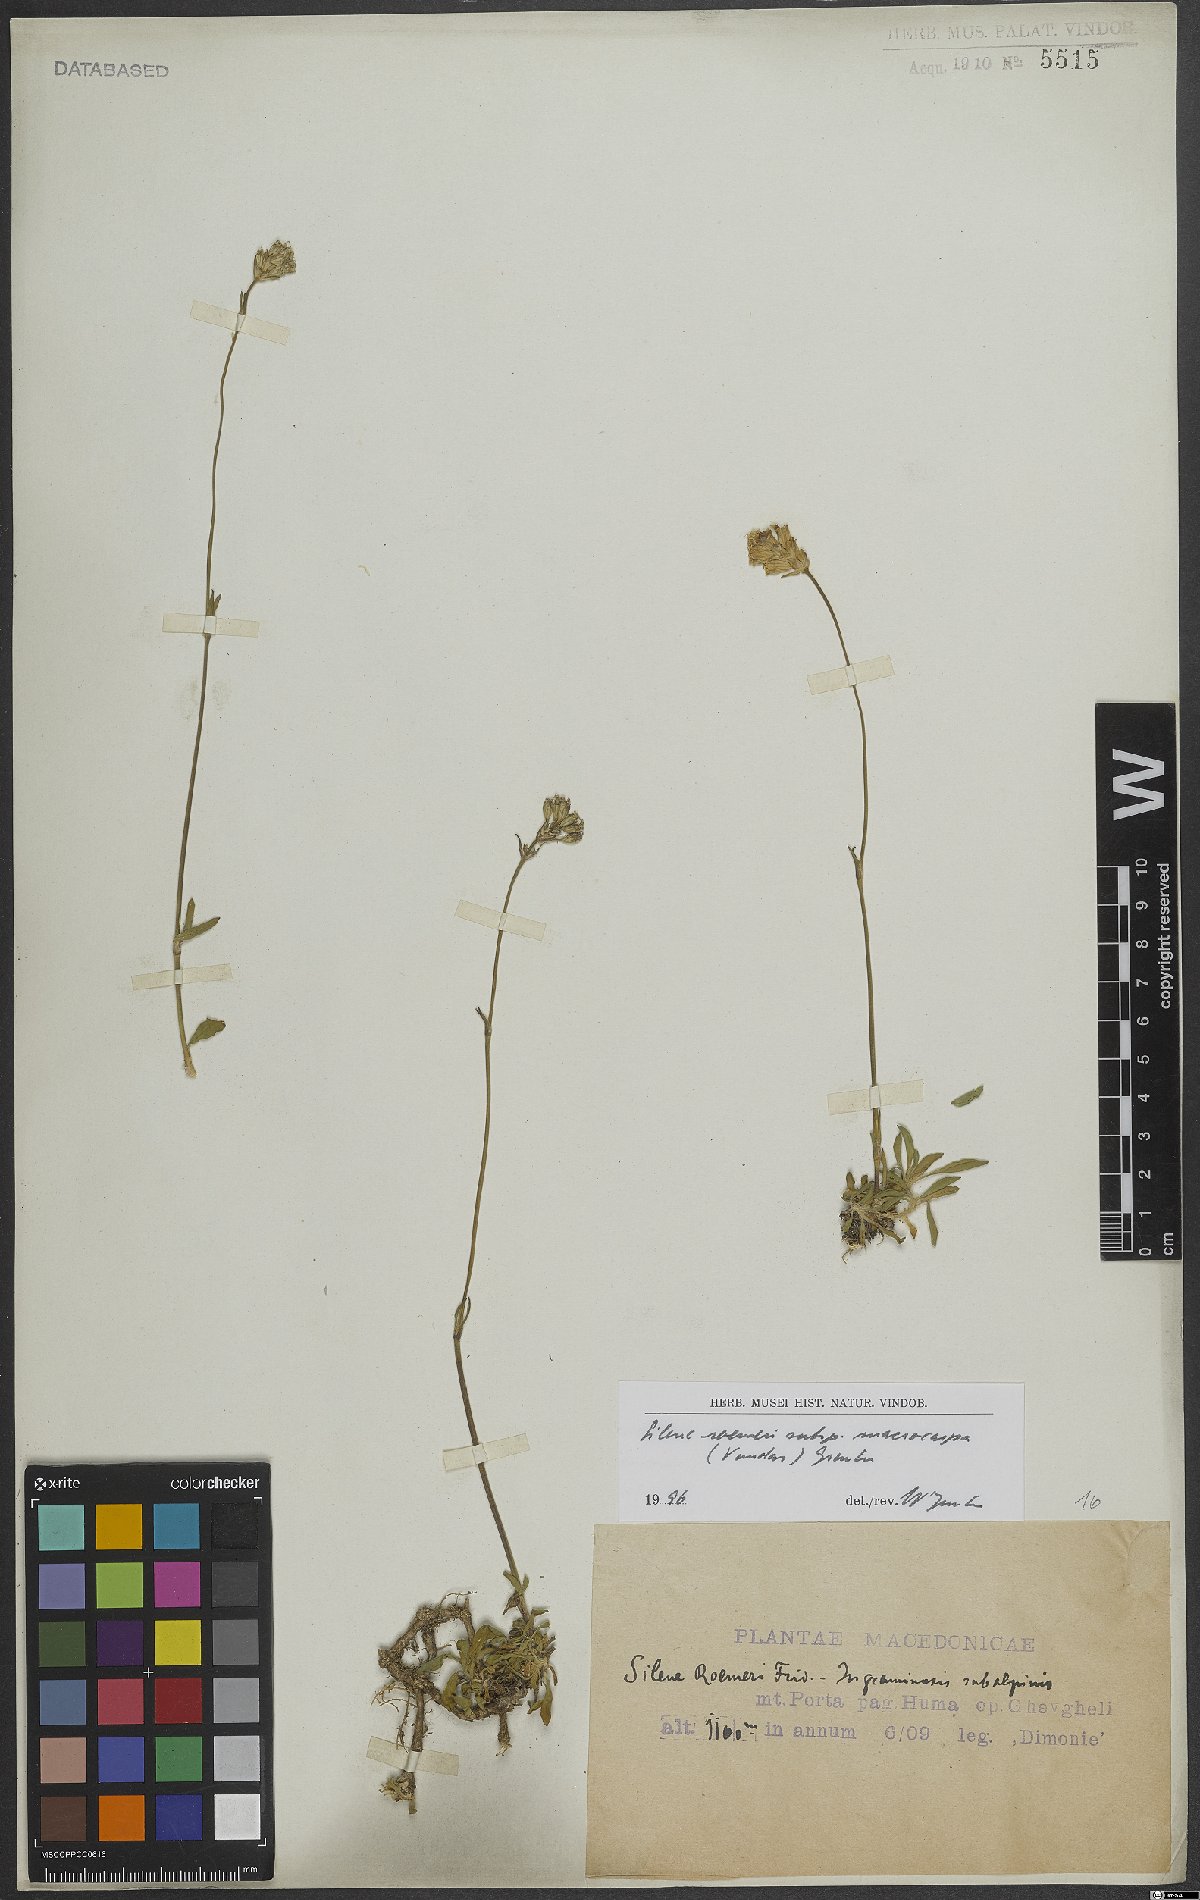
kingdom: Plantae
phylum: Tracheophyta
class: Magnoliopsida
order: Caryophyllales
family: Caryophyllaceae
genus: Silene
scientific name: Silene roemeri
